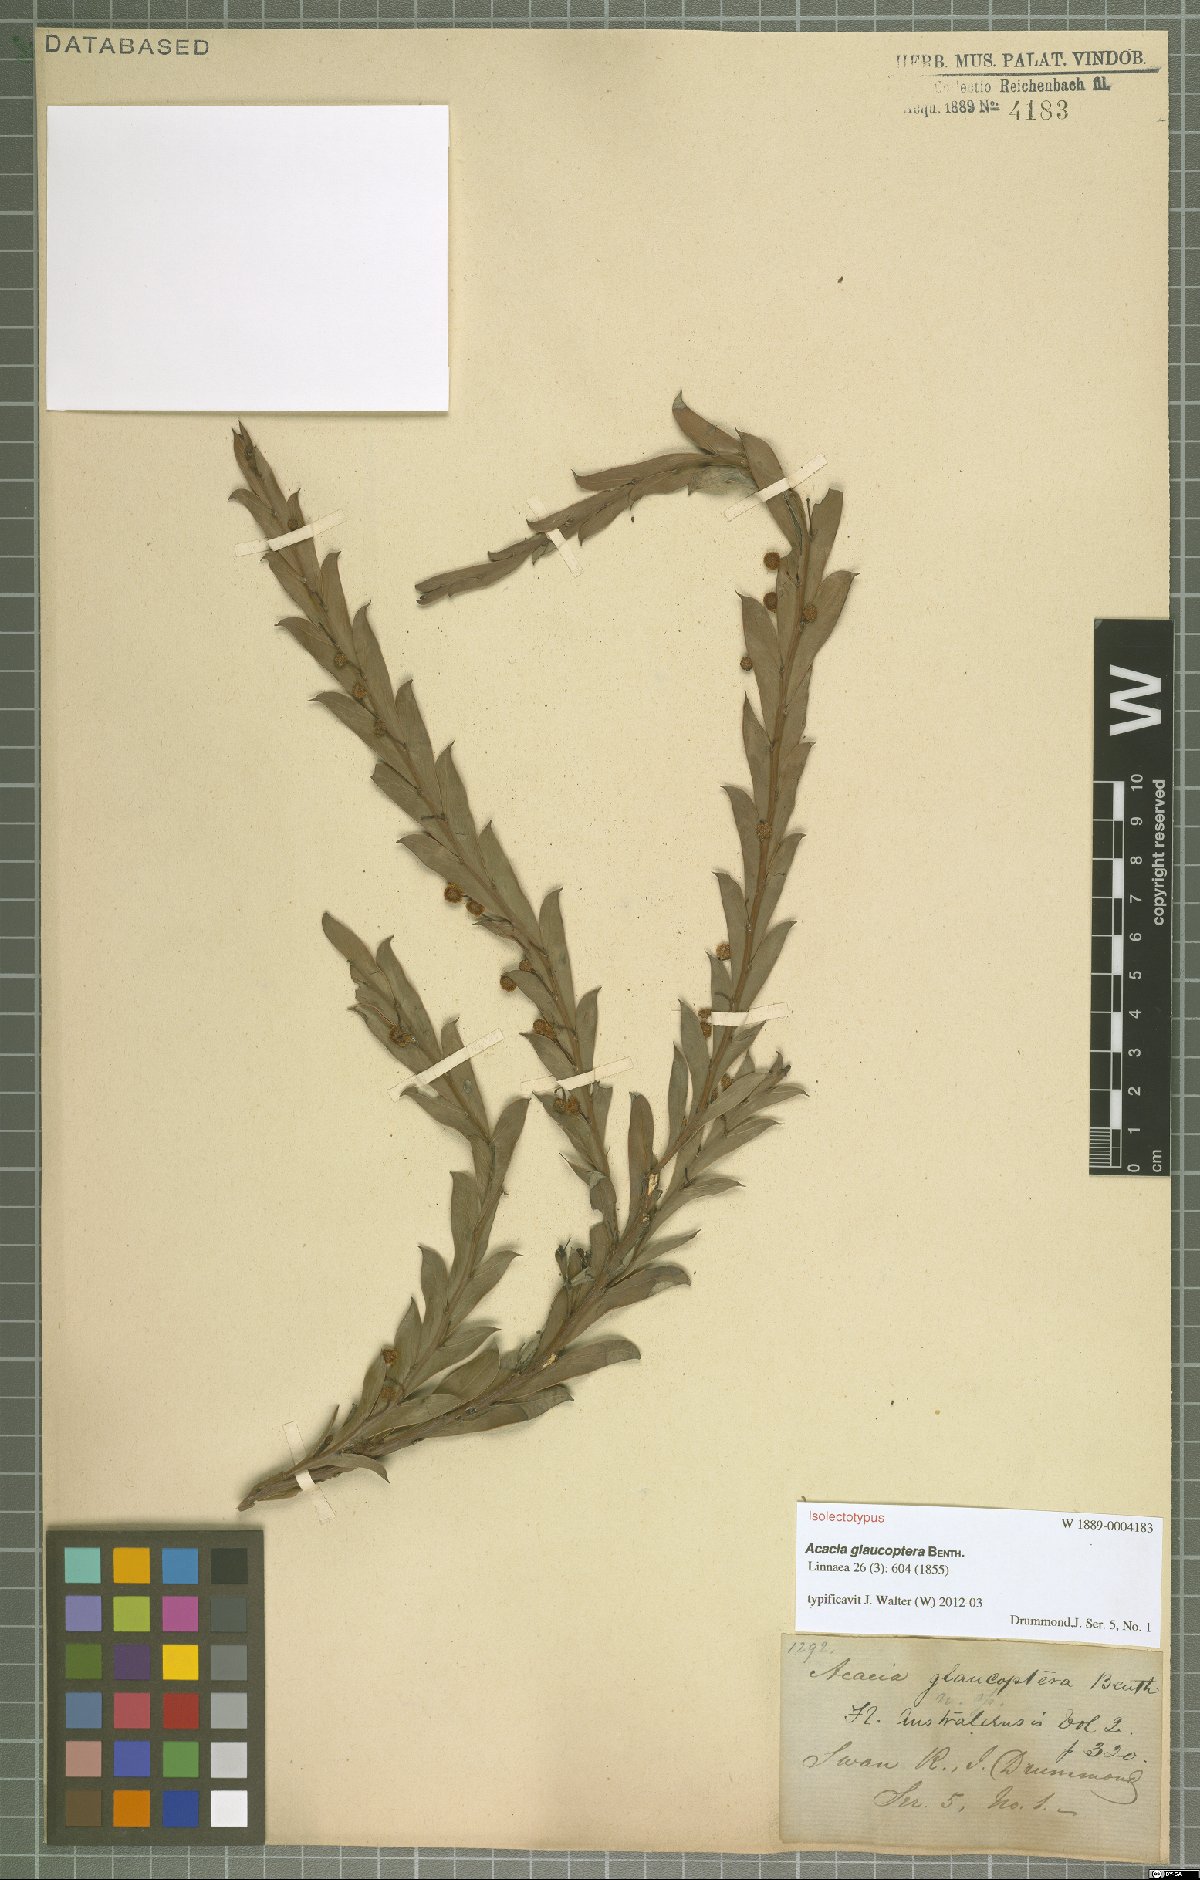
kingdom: Plantae
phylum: Tracheophyta
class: Magnoliopsida
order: Fabales
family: Fabaceae
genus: Acacia
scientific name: Acacia glaucoptera
